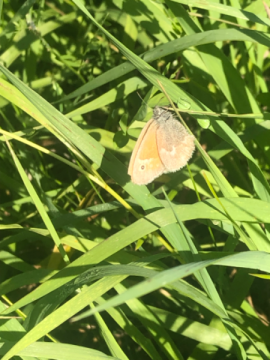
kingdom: Animalia
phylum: Arthropoda
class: Insecta
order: Lepidoptera
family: Nymphalidae
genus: Coenonympha
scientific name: Coenonympha tullia
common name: Large Heath
